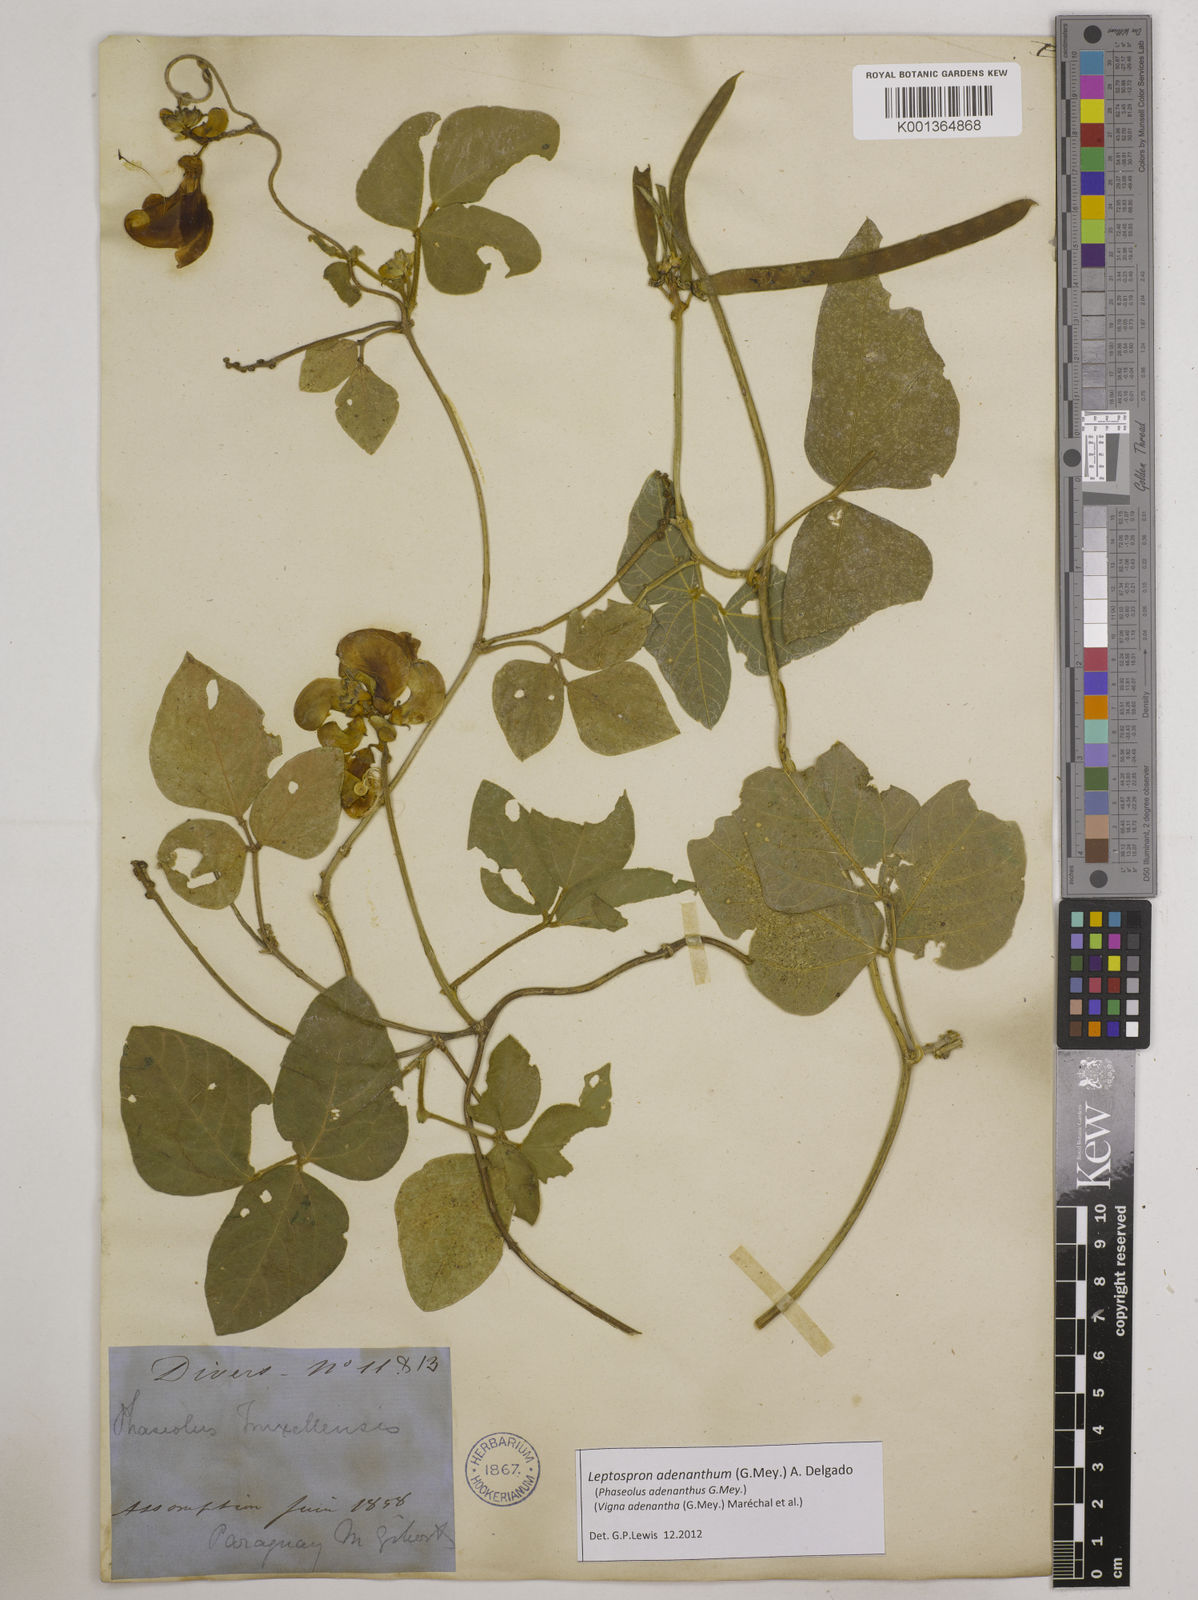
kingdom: Plantae
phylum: Tracheophyta
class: Magnoliopsida
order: Fabales
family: Fabaceae
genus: Leptospron
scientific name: Leptospron adenanthum
